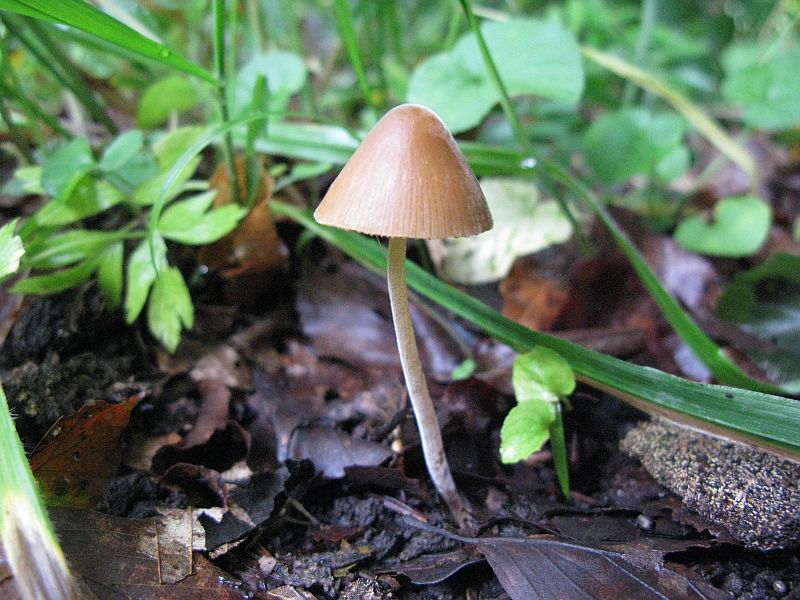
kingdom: Fungi
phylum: Basidiomycota
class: Agaricomycetes
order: Agaricales
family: Bolbitiaceae
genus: Conocybe
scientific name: Conocybe subpubescens
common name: krat-keglehat
